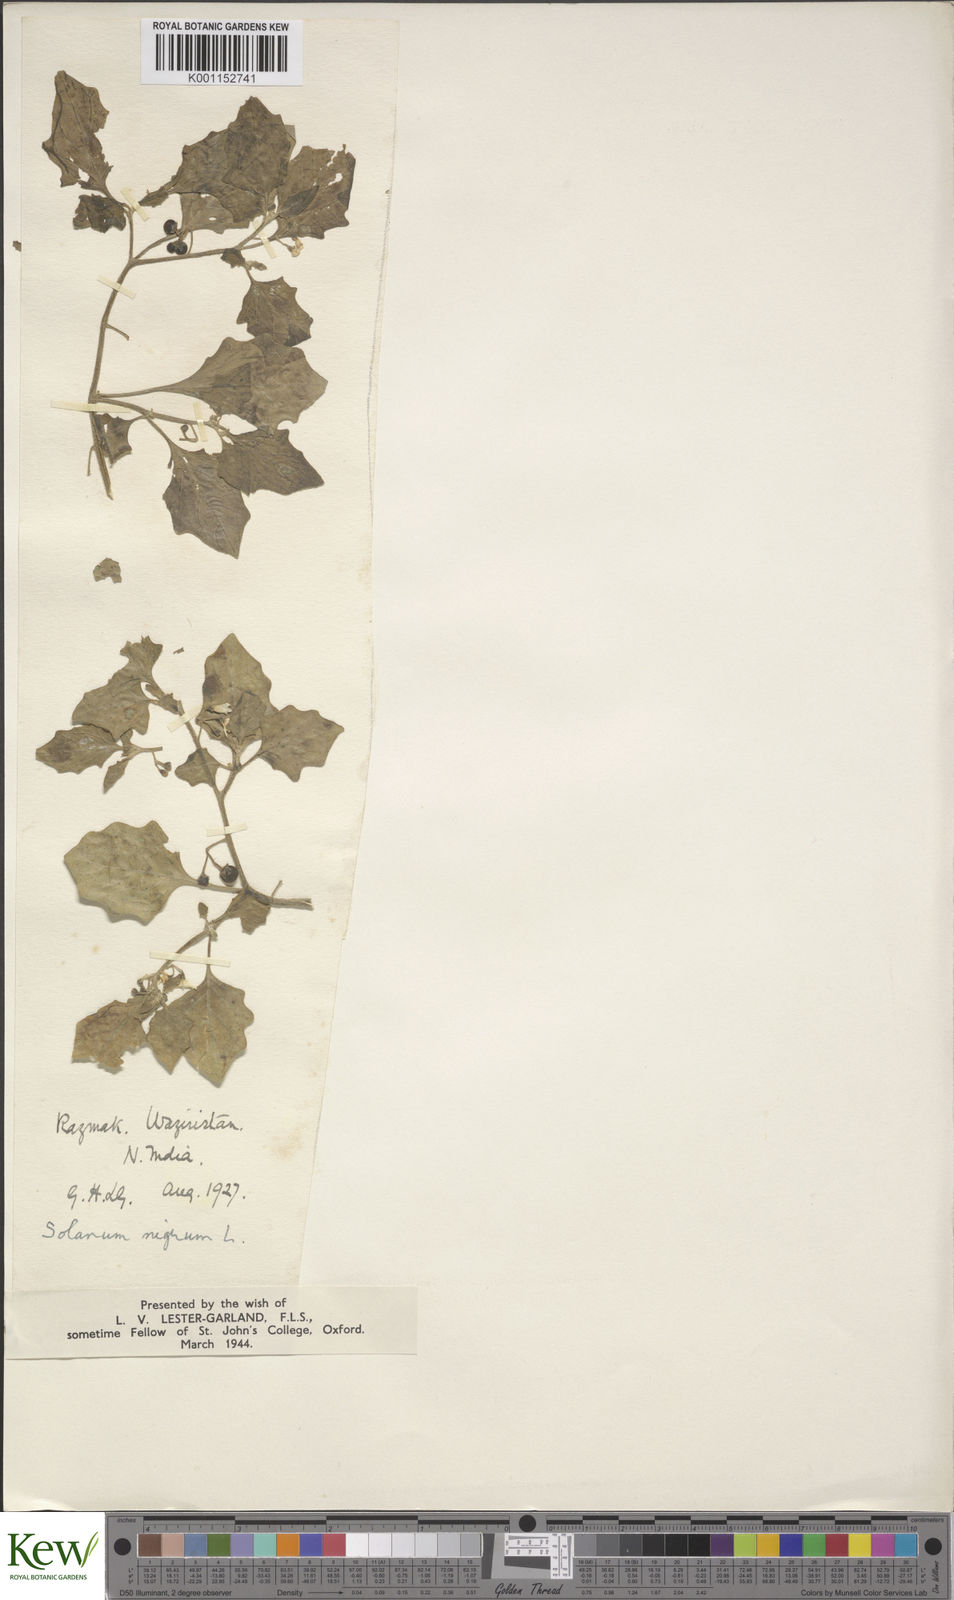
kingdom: Plantae
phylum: Tracheophyta
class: Magnoliopsida
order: Solanales
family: Solanaceae
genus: Solanum
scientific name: Solanum nigrum
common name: Black nightshade
